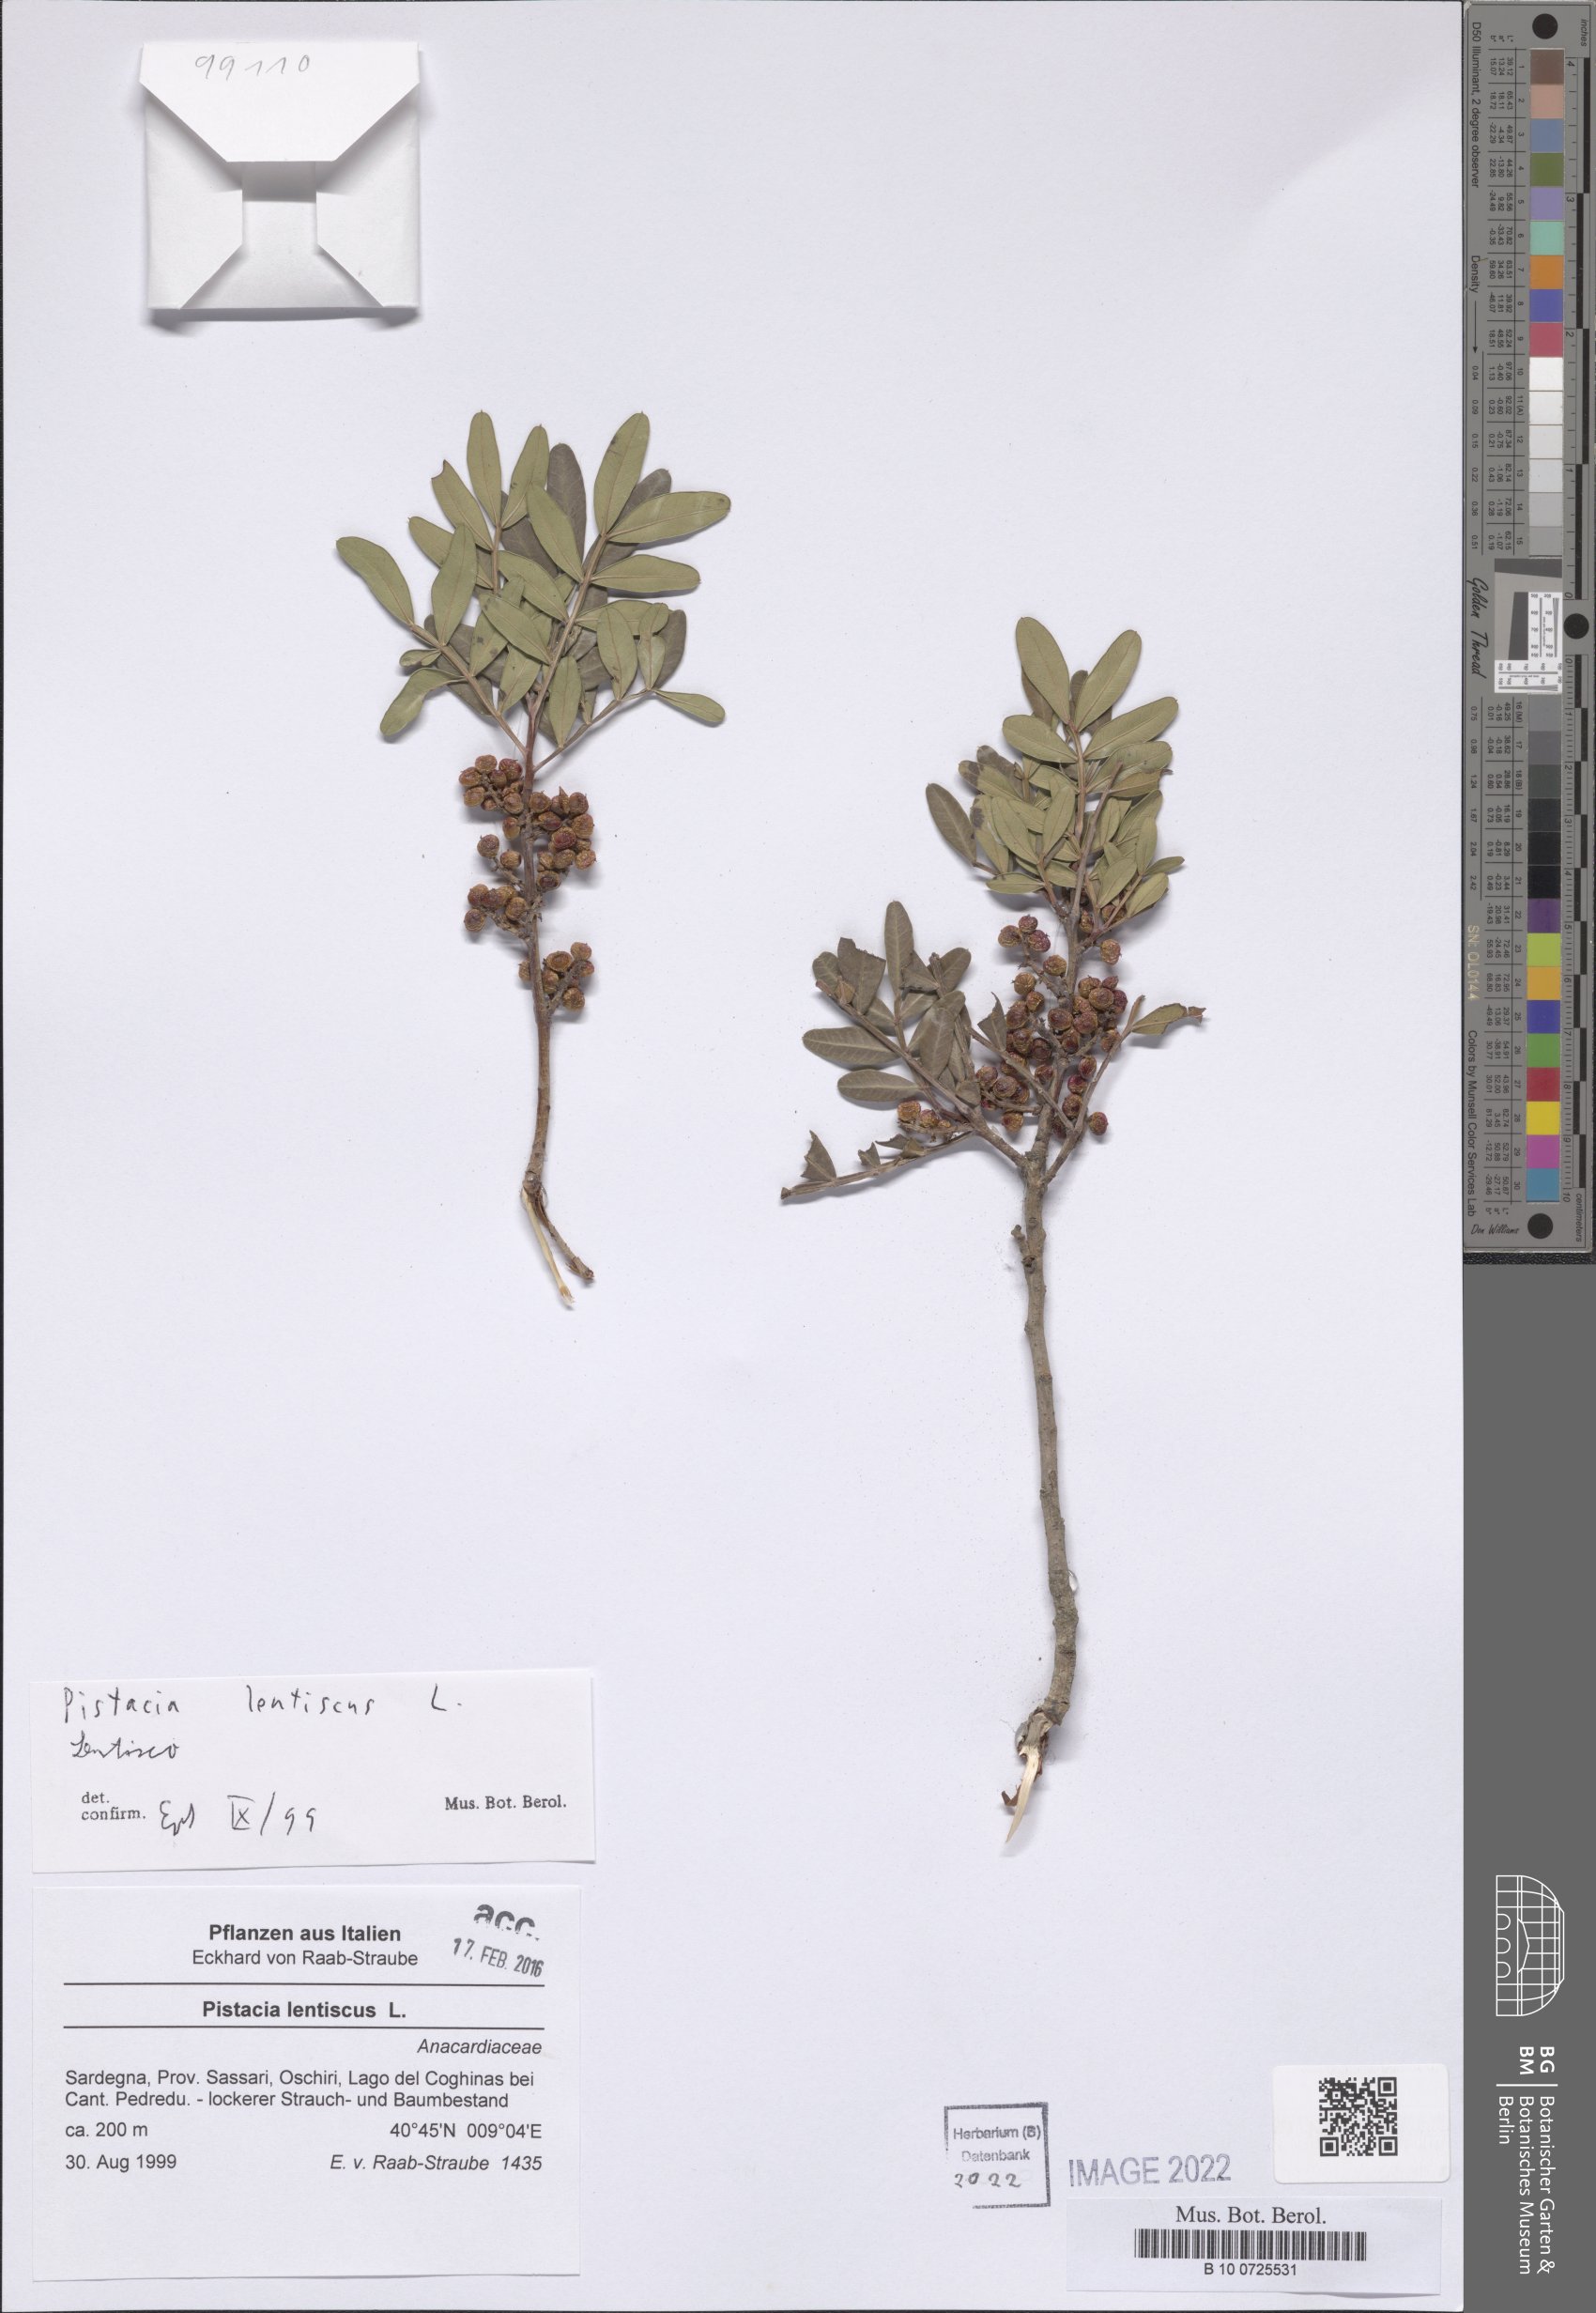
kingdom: Plantae
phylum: Tracheophyta
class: Magnoliopsida
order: Sapindales
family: Anacardiaceae
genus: Pistacia
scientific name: Pistacia lentiscus
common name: Lentisk
